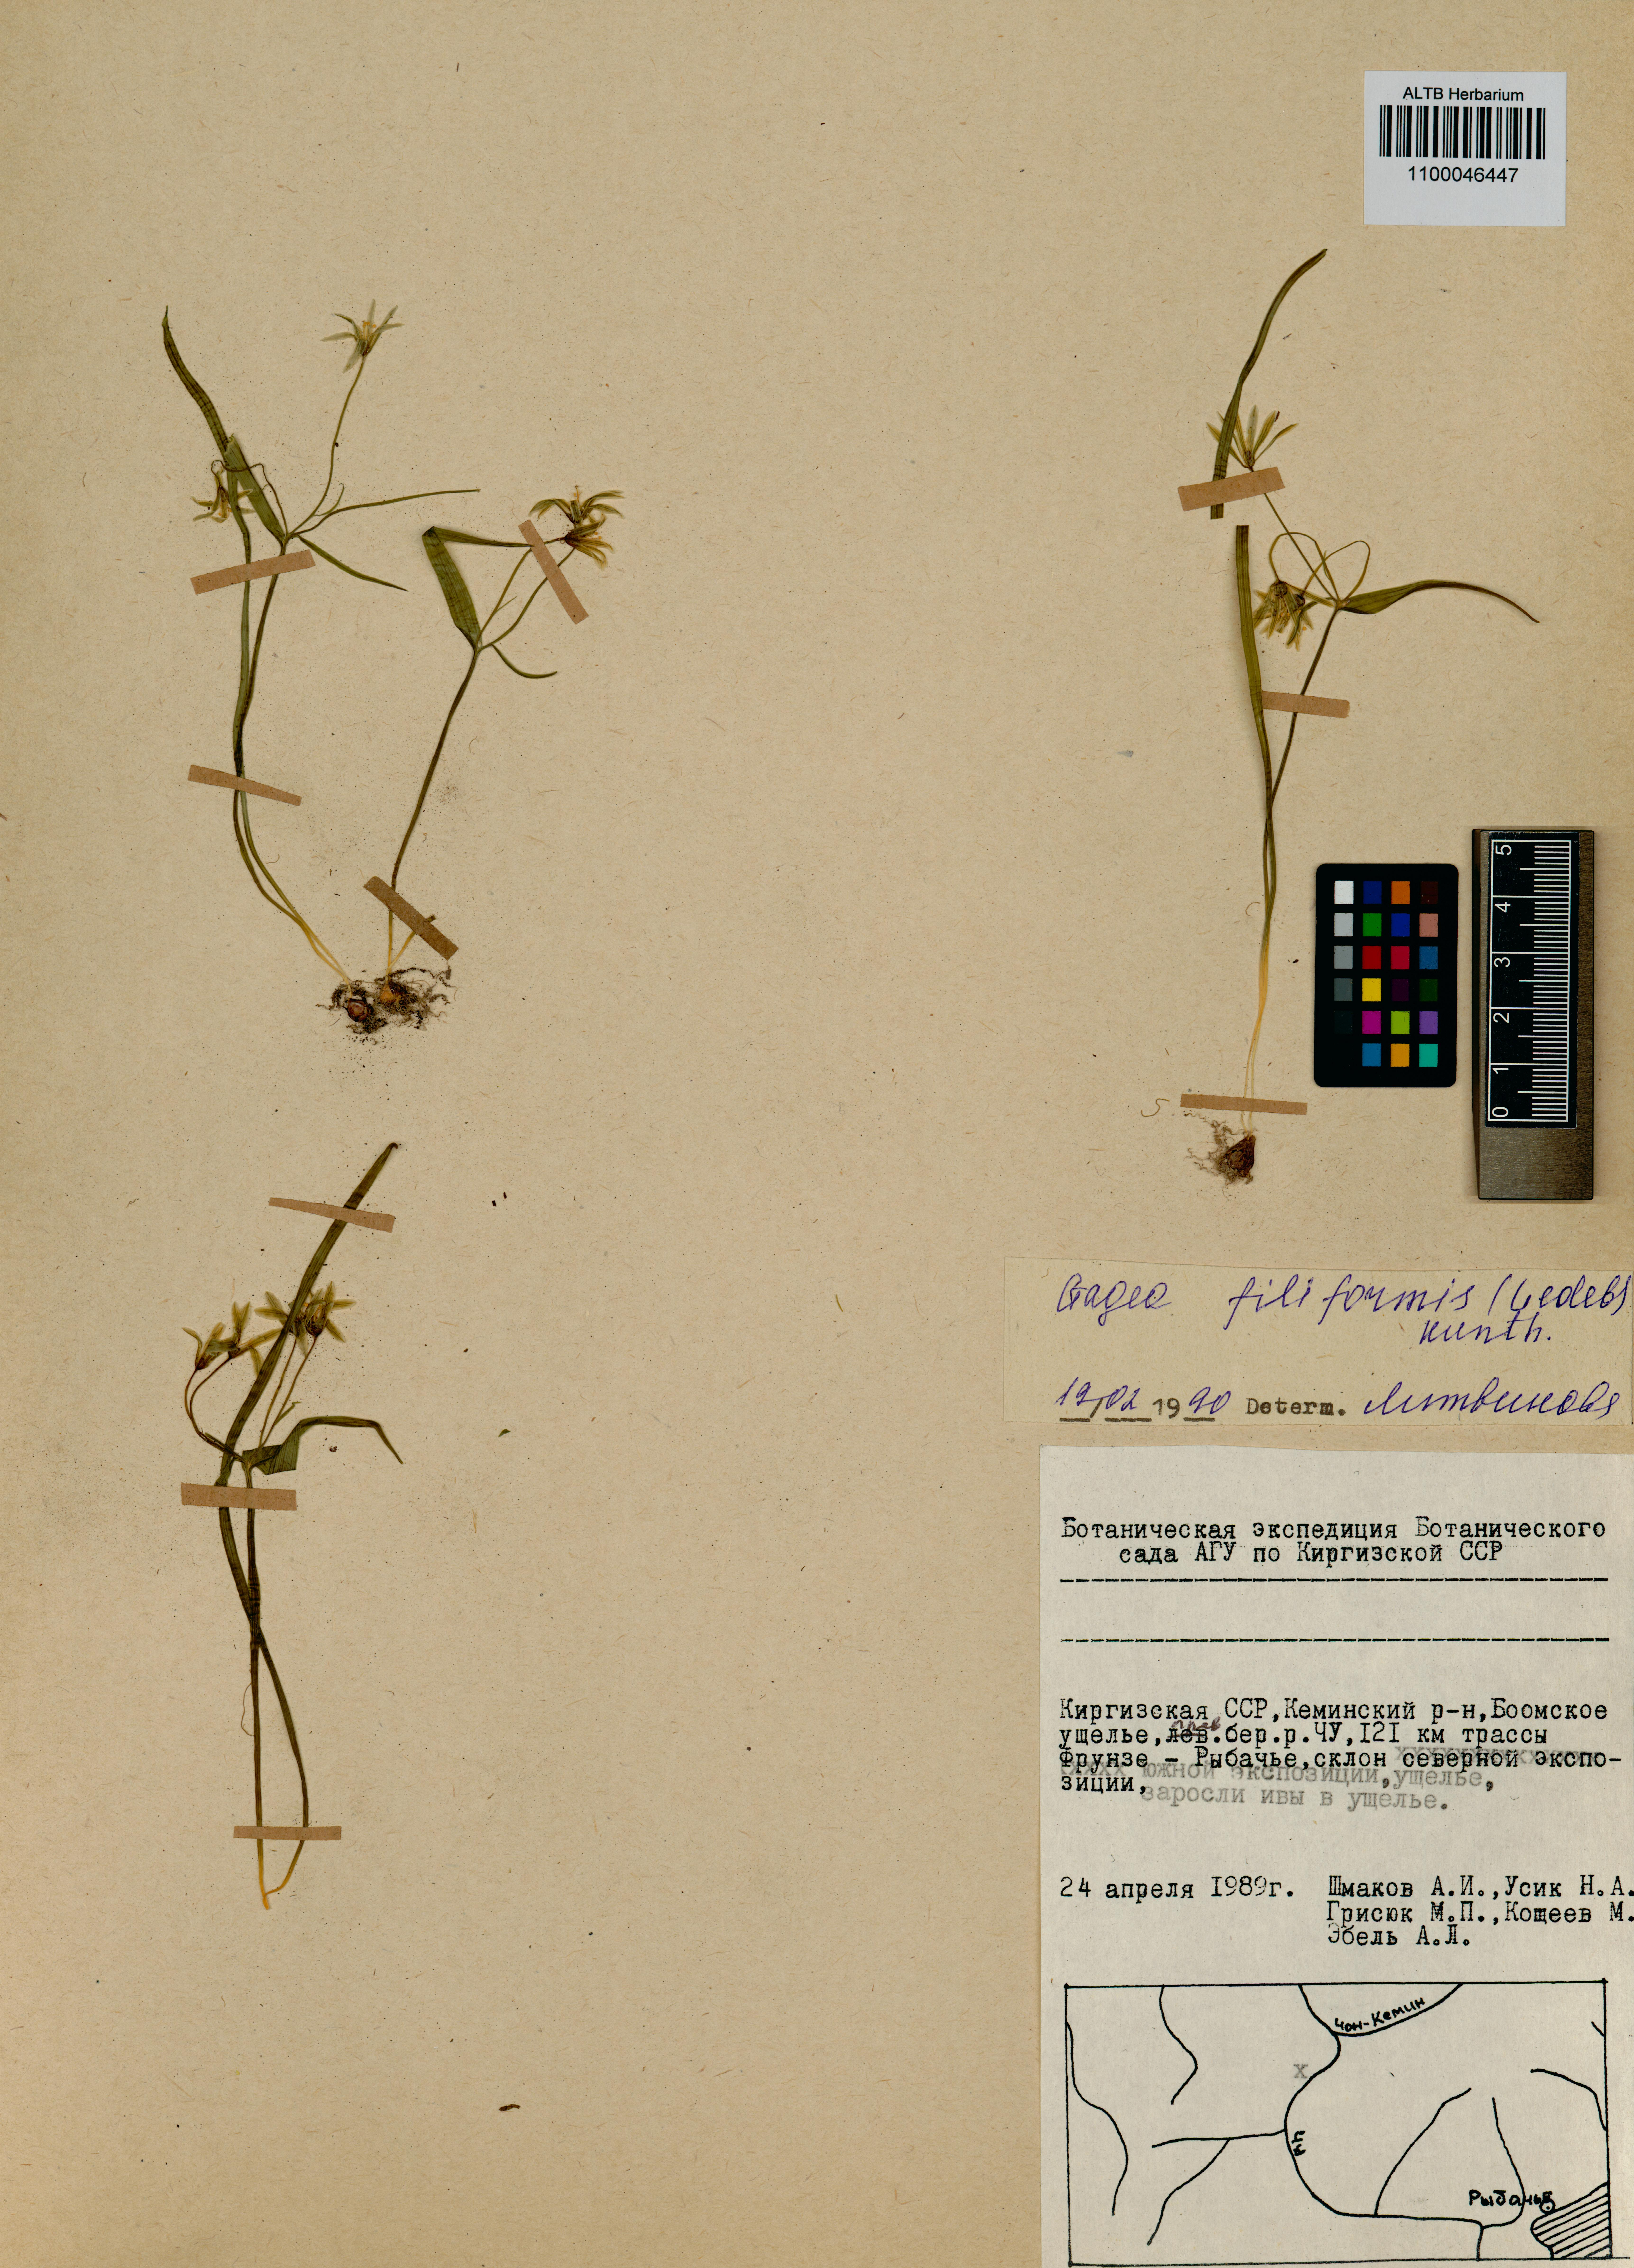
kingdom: Plantae
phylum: Tracheophyta
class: Liliopsida
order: Liliales
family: Liliaceae
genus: Gagea
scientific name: Gagea filiformis
